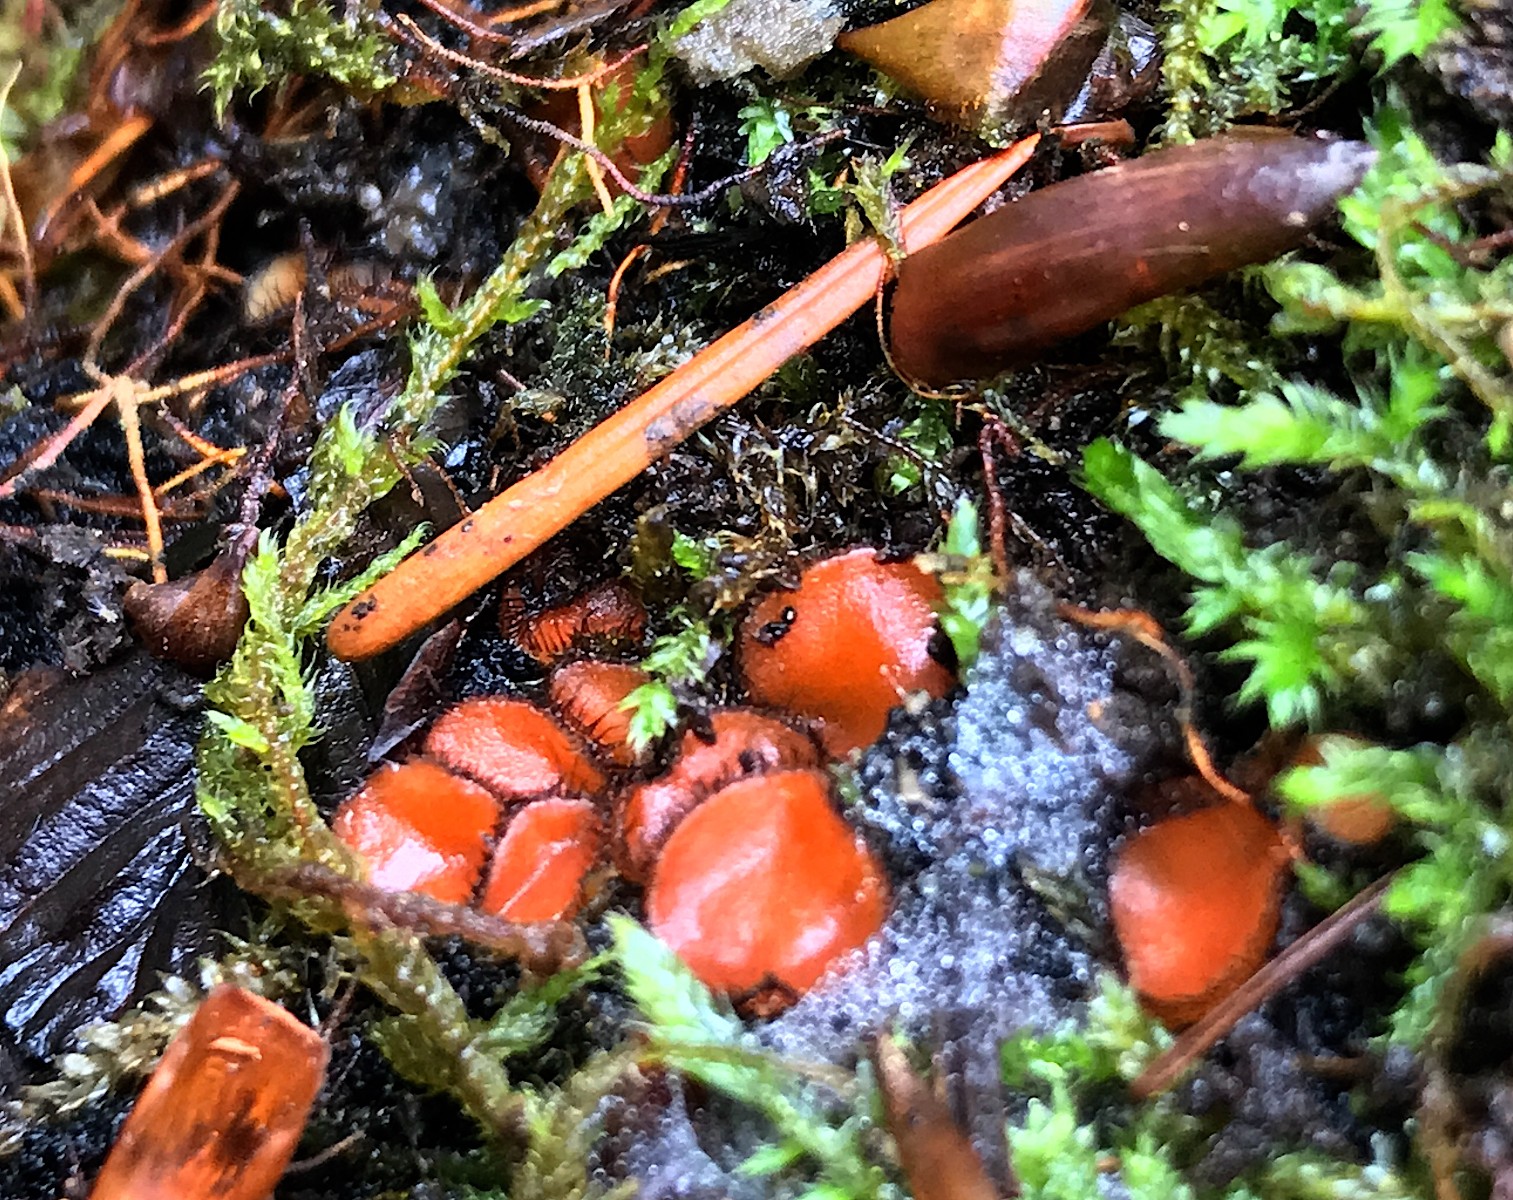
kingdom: Fungi
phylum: Ascomycota
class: Pezizomycetes
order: Pezizales
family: Pyronemataceae
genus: Scutellinia
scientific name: Scutellinia scutellata
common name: frynset skjoldbæger
